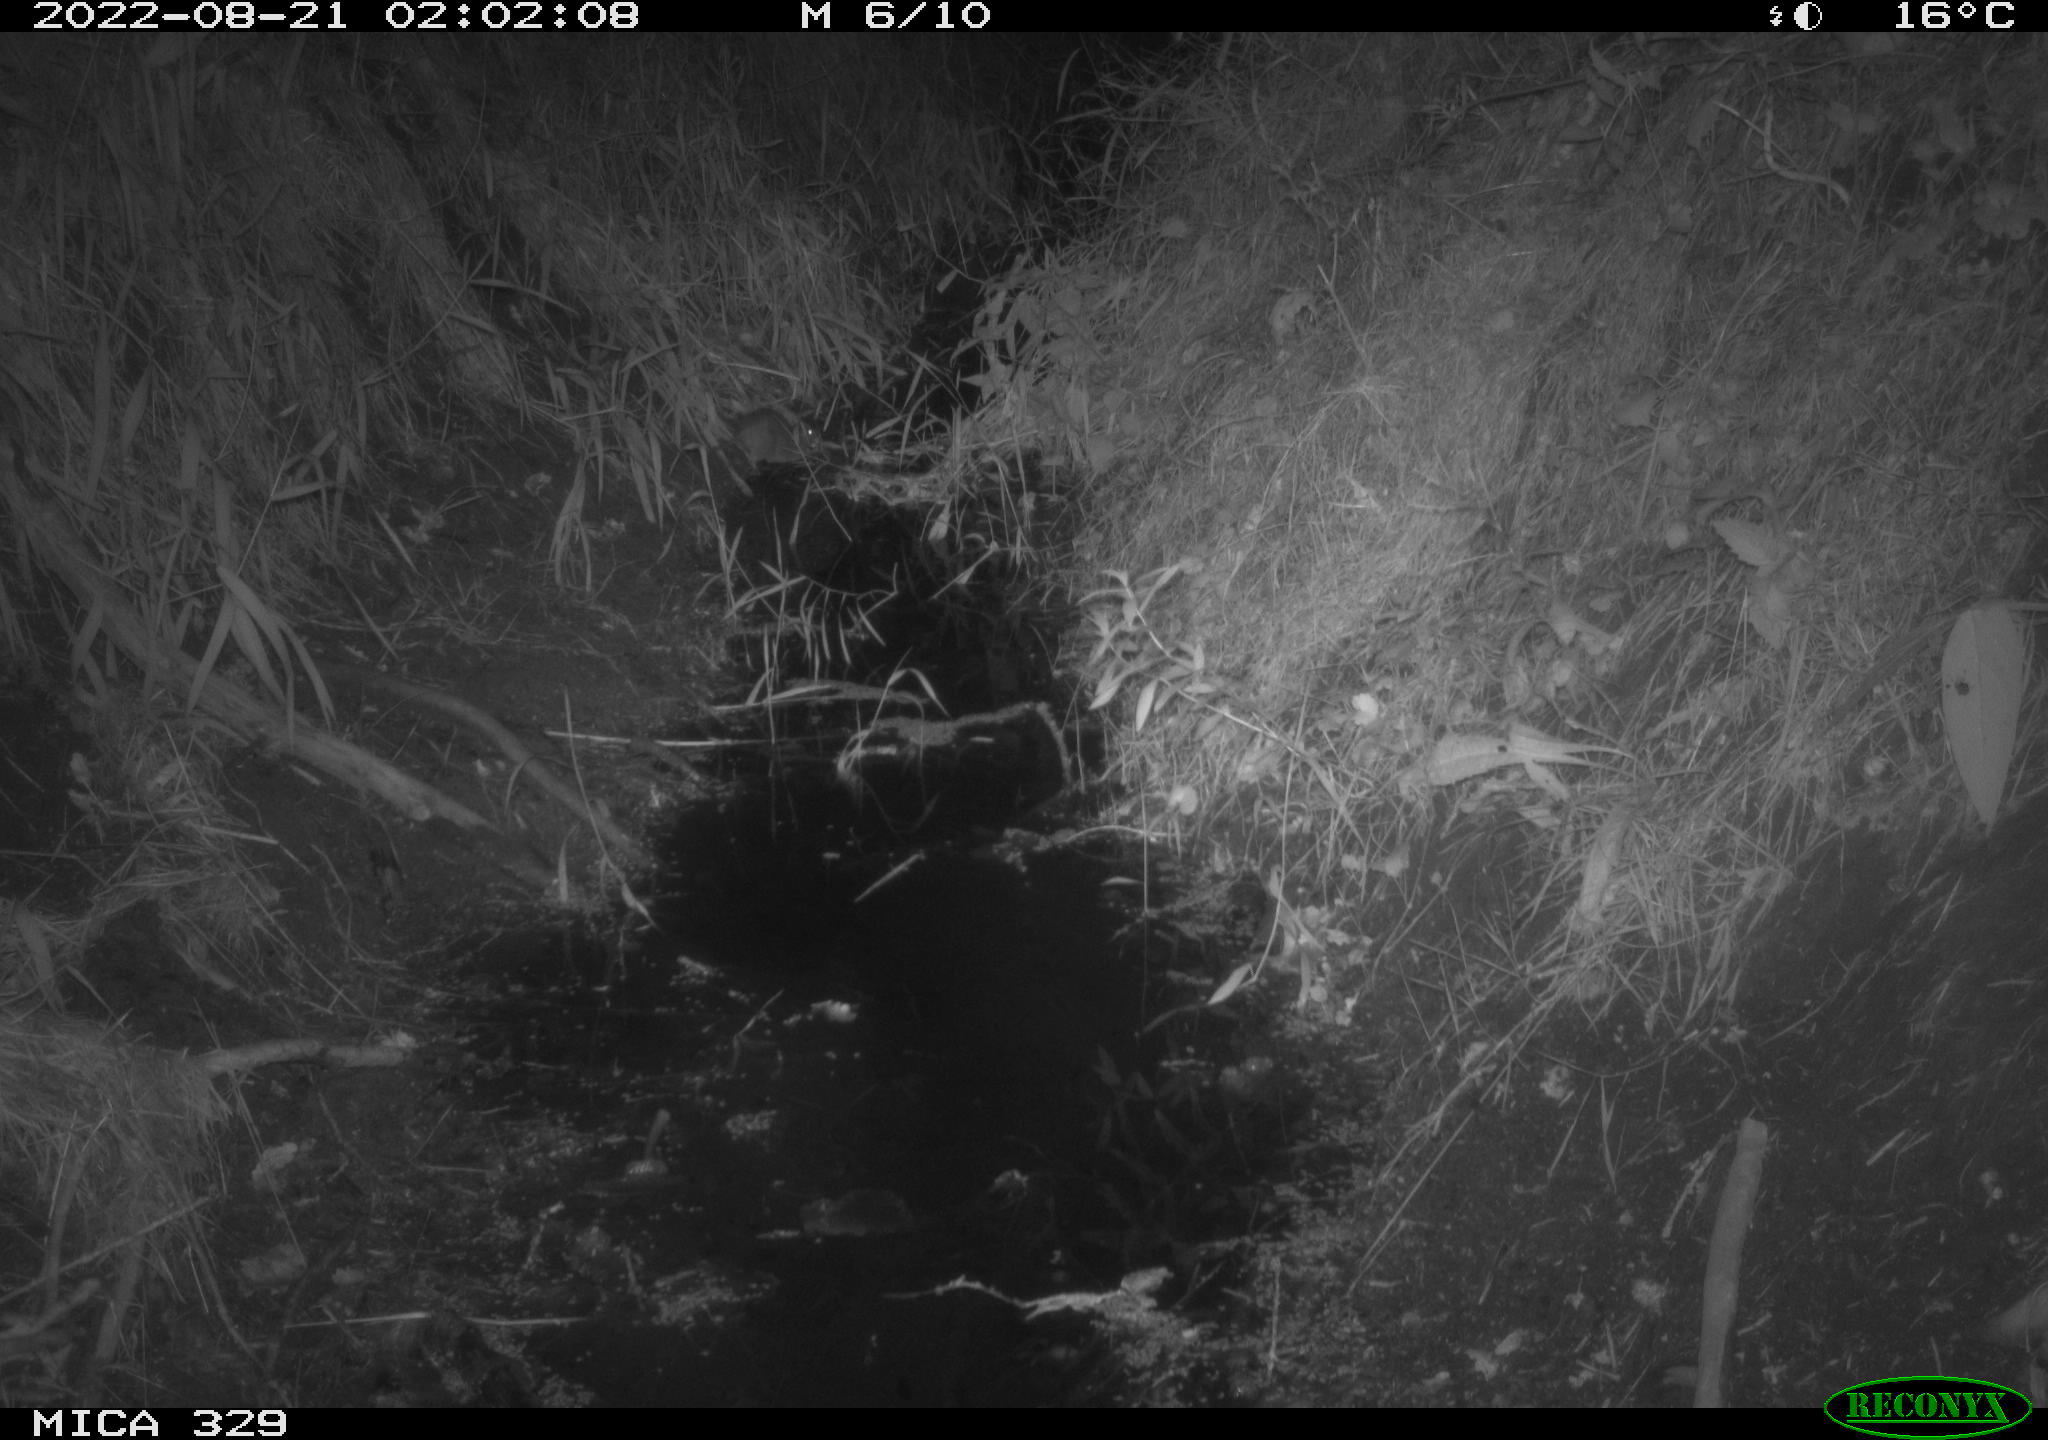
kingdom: Animalia
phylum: Chordata
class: Mammalia
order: Rodentia
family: Cricetidae
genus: Arvicola
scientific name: Arvicola amphibius
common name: European water vole
